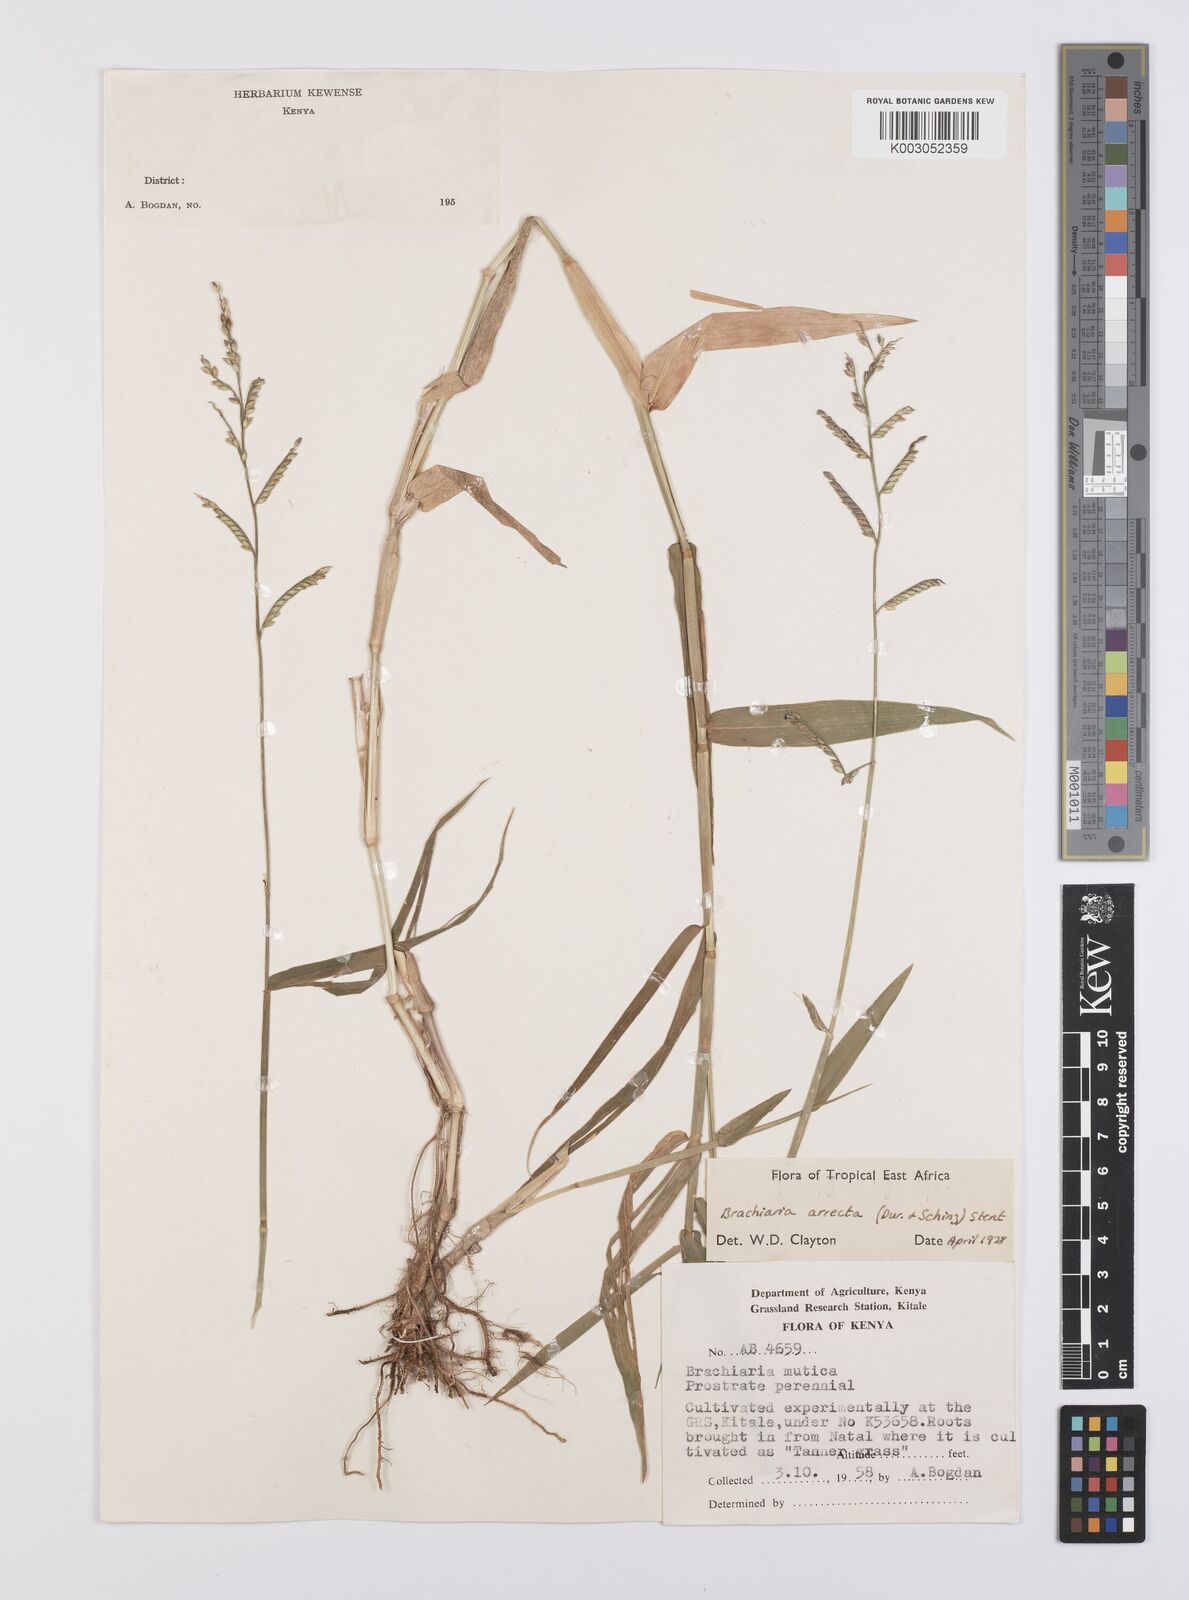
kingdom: Plantae
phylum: Tracheophyta
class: Liliopsida
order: Poales
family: Poaceae
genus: Urochloa
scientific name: Urochloa arrecta
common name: African signalgrass
